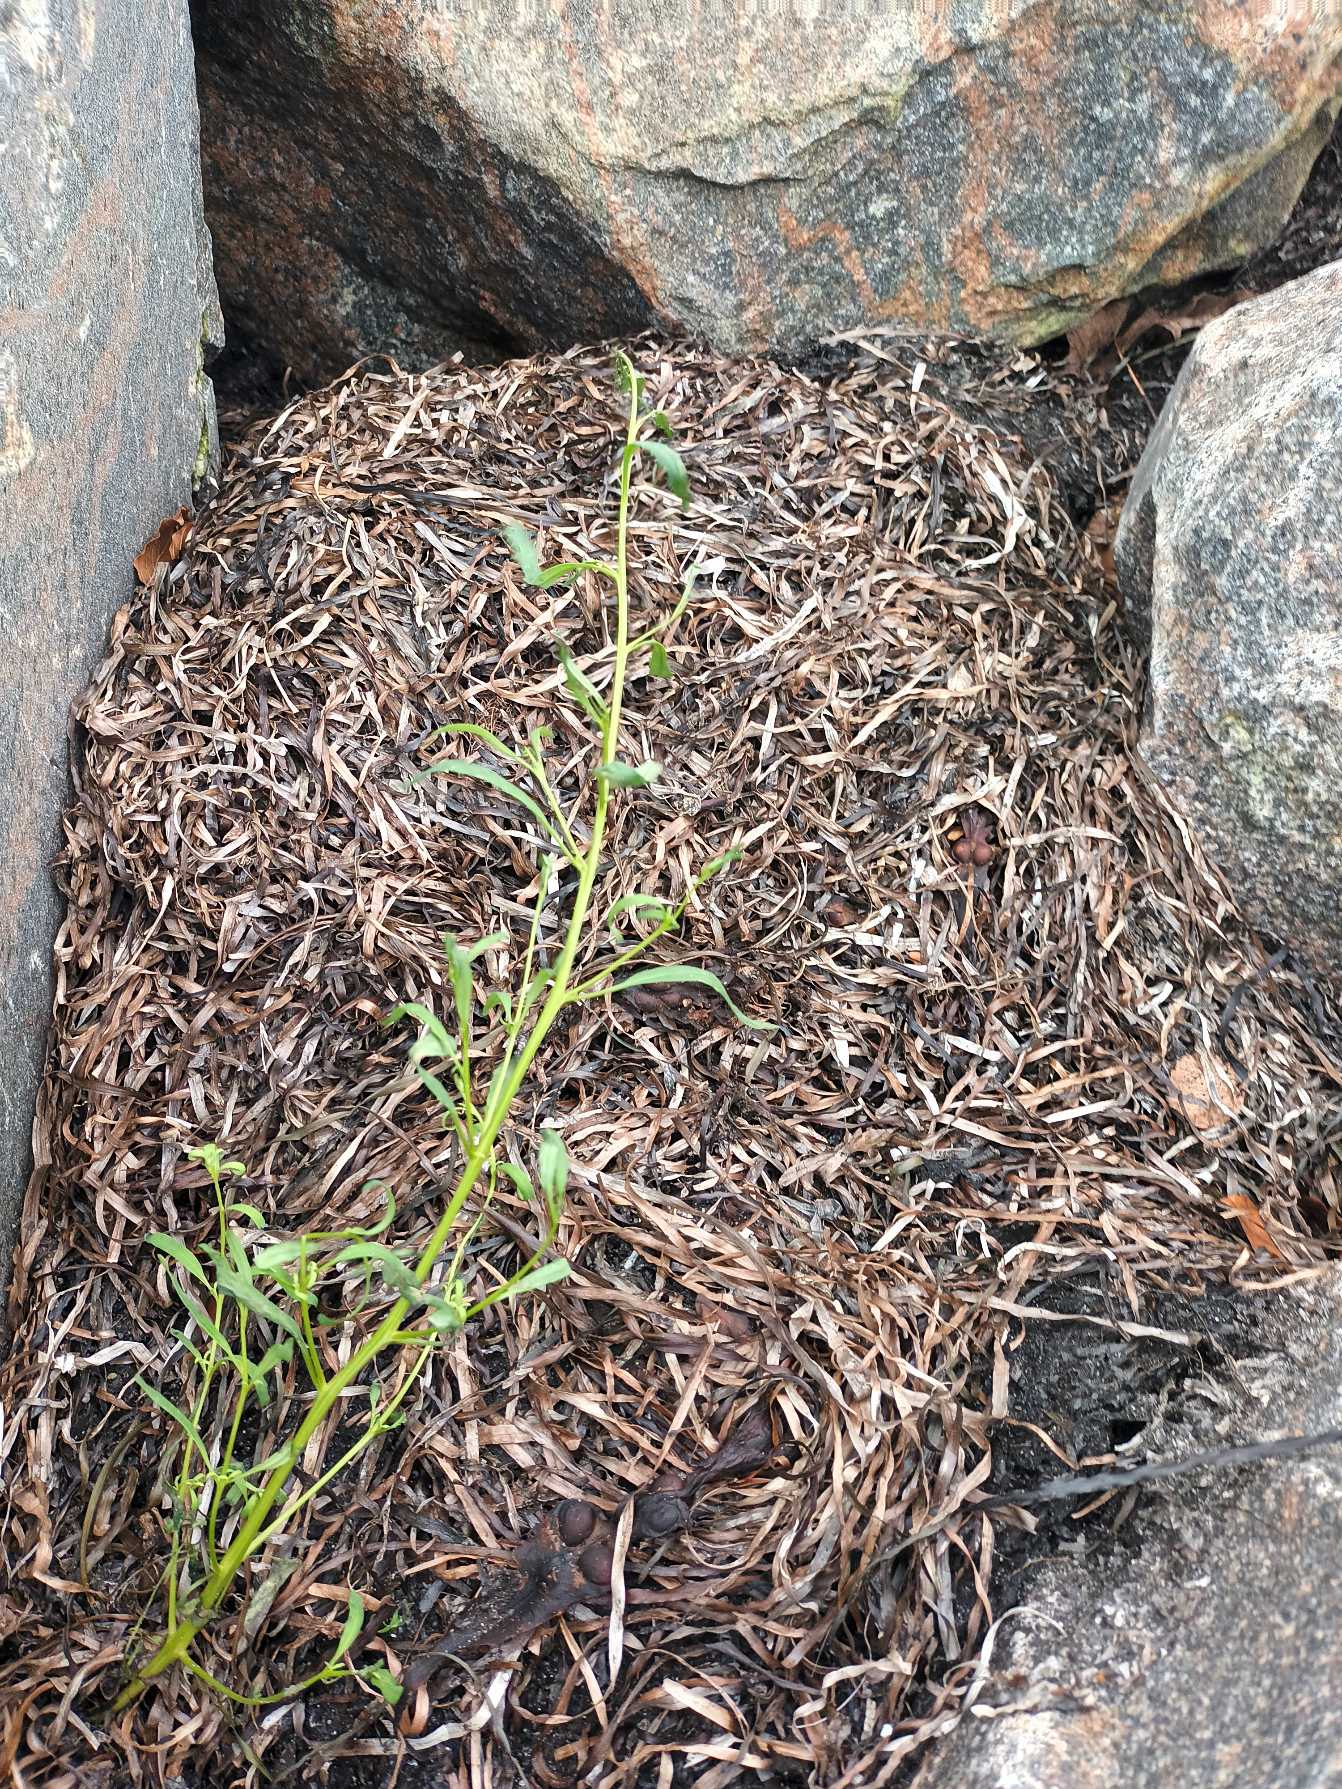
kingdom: Plantae
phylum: Tracheophyta
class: Magnoliopsida
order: Caryophyllales
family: Amaranthaceae
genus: Atriplex
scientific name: Atriplex littoralis
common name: Strand-mælde
